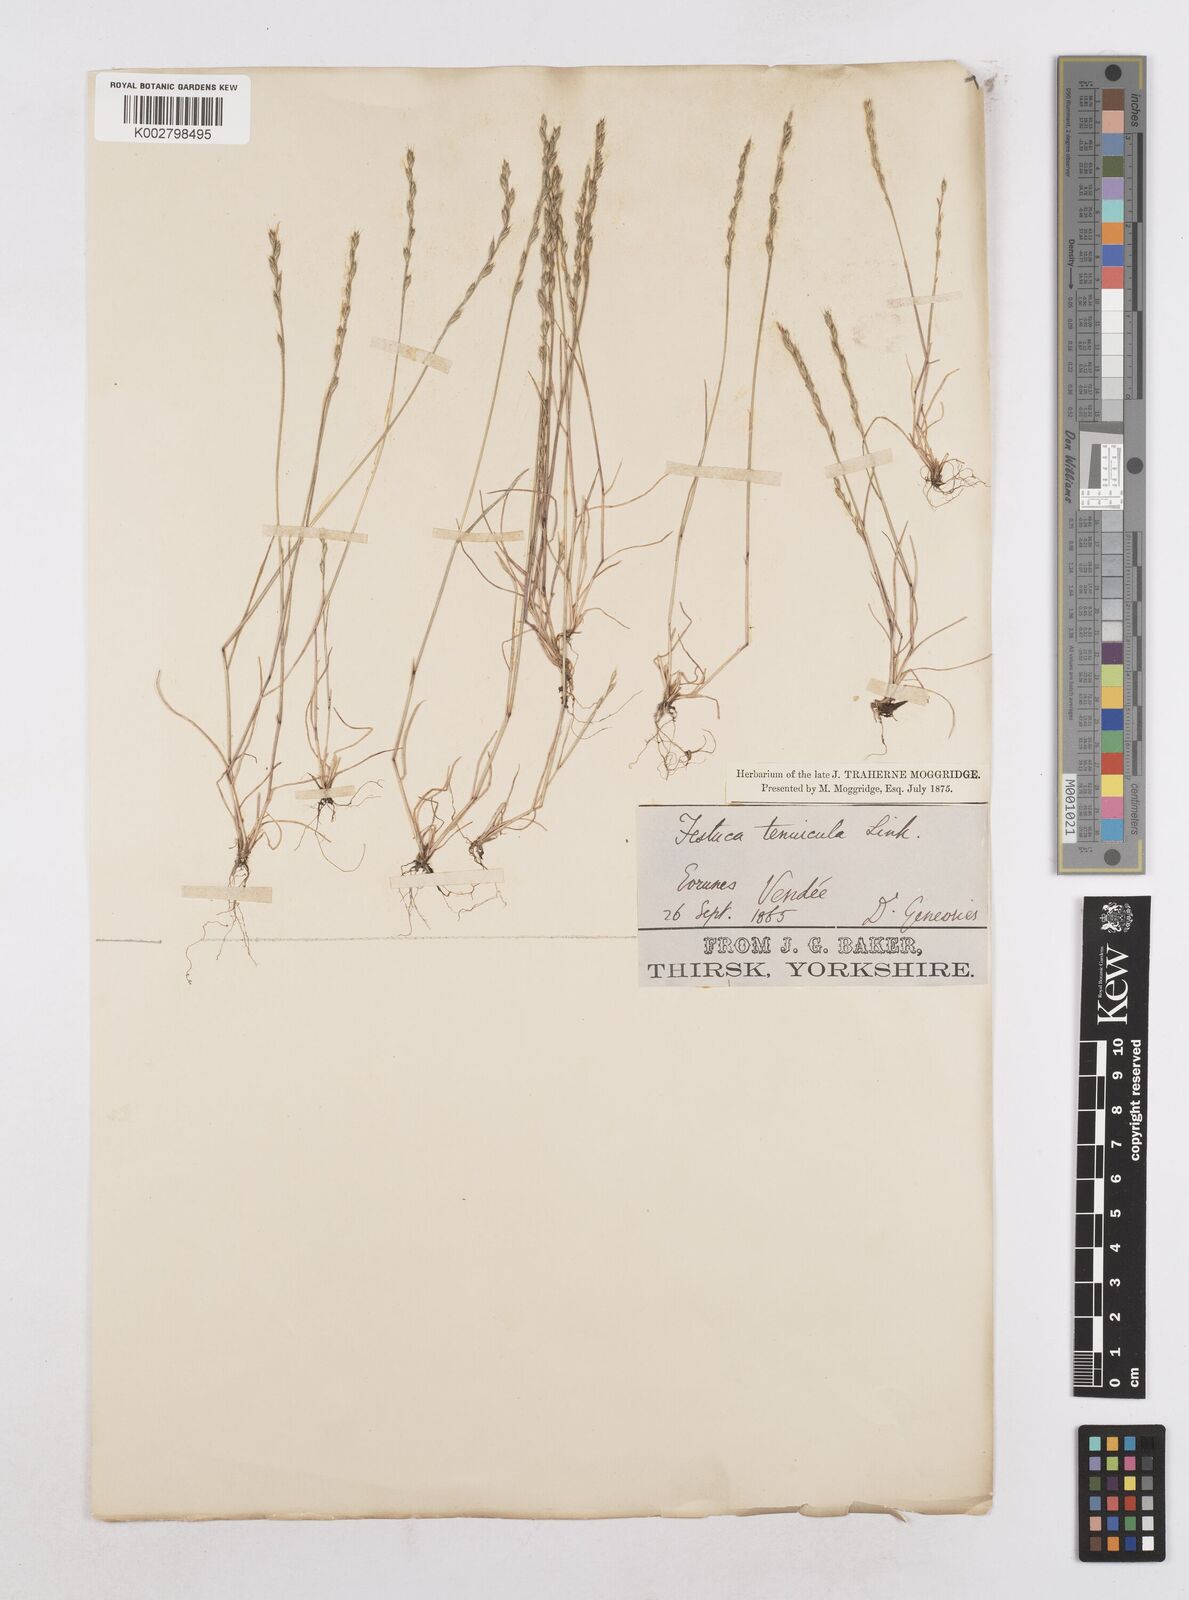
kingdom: Plantae
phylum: Tracheophyta
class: Liliopsida
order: Poales
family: Poaceae
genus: Festuca
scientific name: Festuca lachenalii
